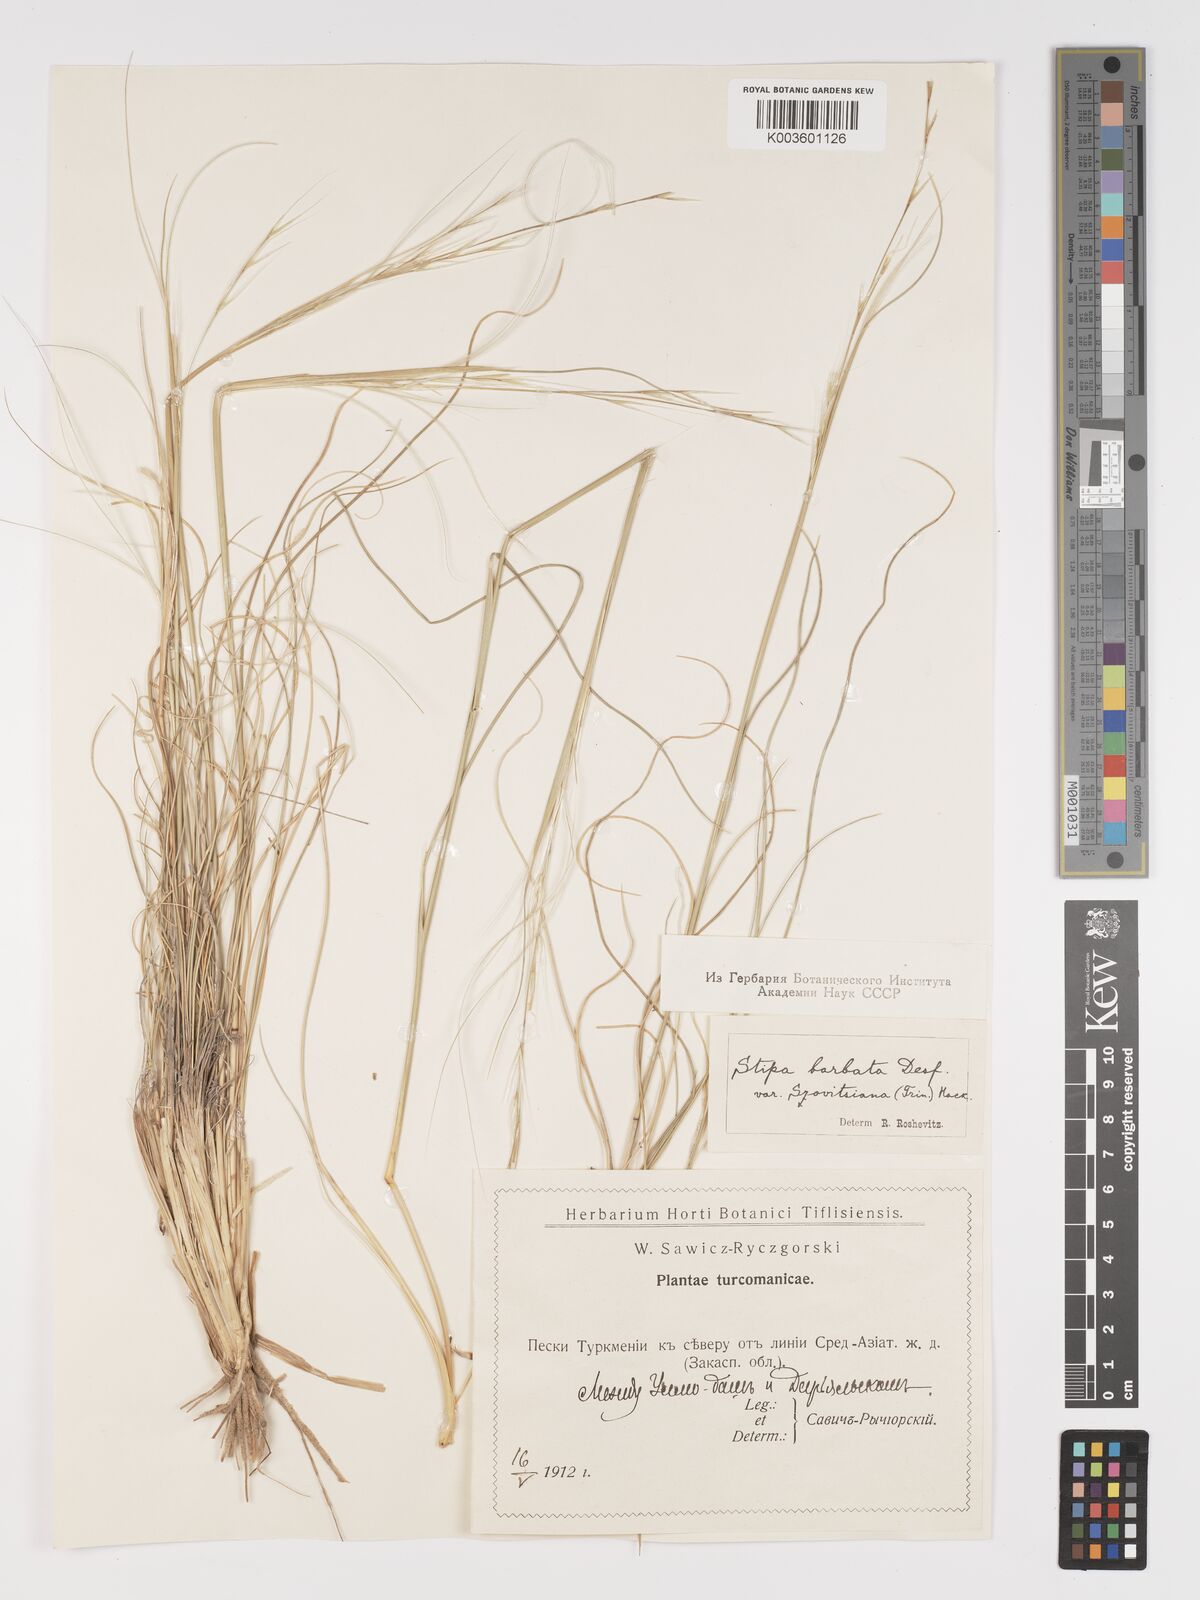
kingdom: Plantae
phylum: Tracheophyta
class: Liliopsida
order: Poales
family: Poaceae
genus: Stipa
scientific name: Stipa arabica
